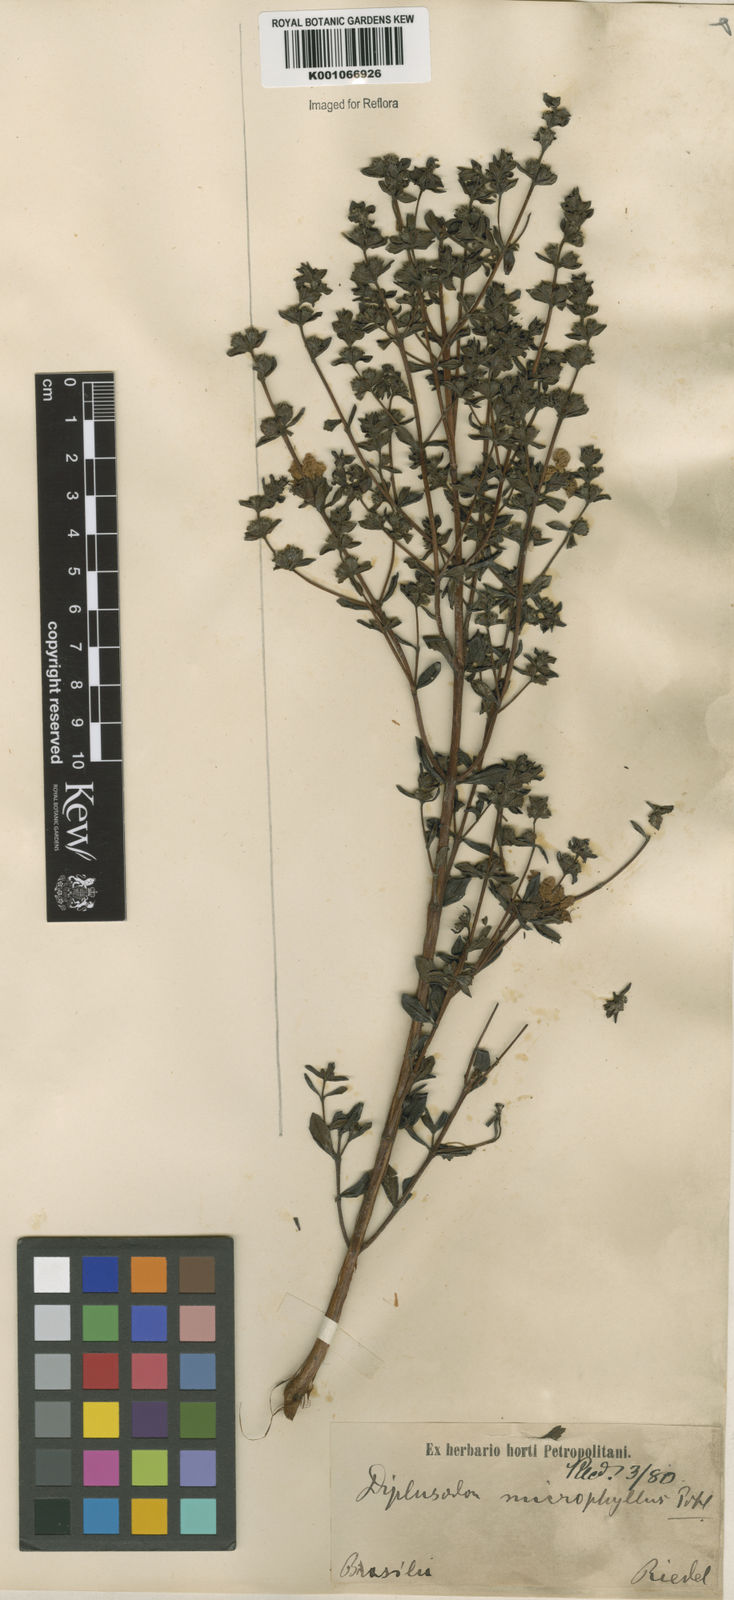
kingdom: Plantae
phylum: Tracheophyta
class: Magnoliopsida
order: Myrtales
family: Lythraceae
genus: Diplusodon
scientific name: Diplusodon microphyllus
